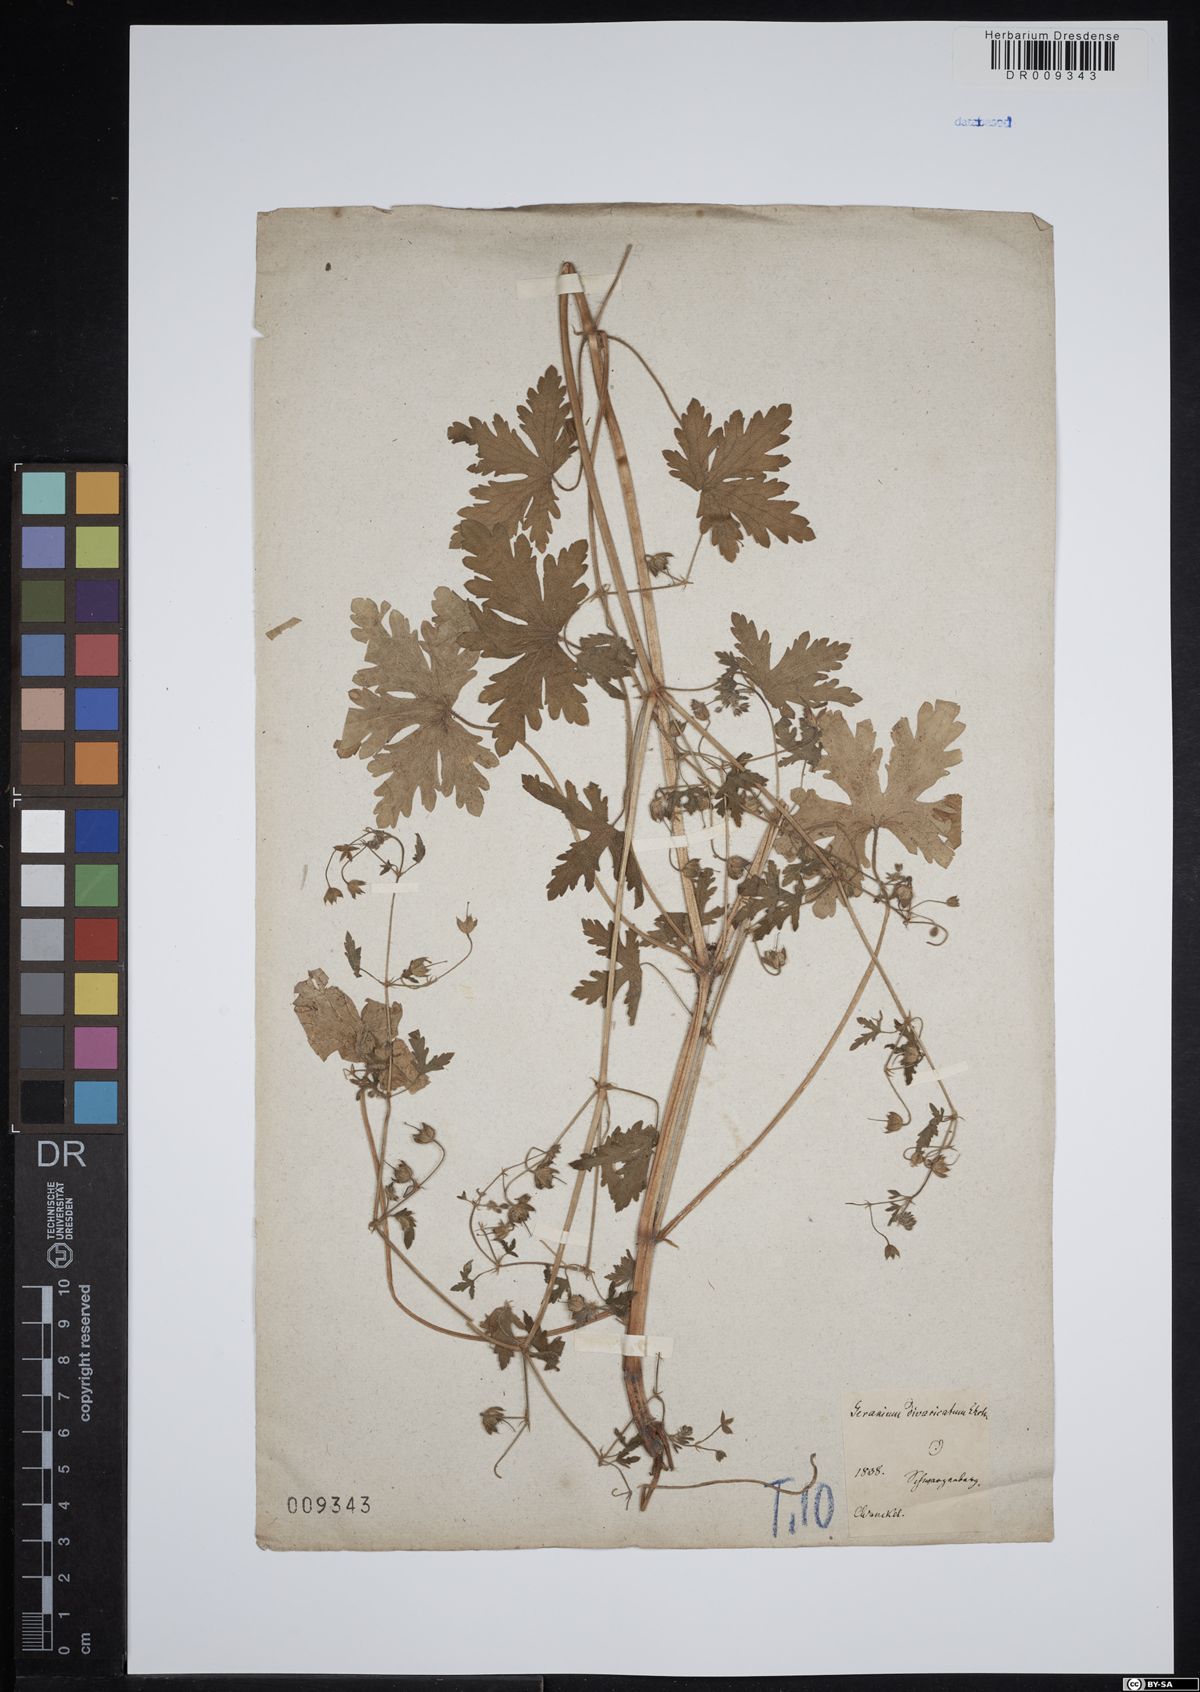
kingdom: Plantae
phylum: Tracheophyta
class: Magnoliopsida
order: Geraniales
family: Geraniaceae
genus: Geranium
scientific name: Geranium divaricatum
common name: Spreading crane's-bill
